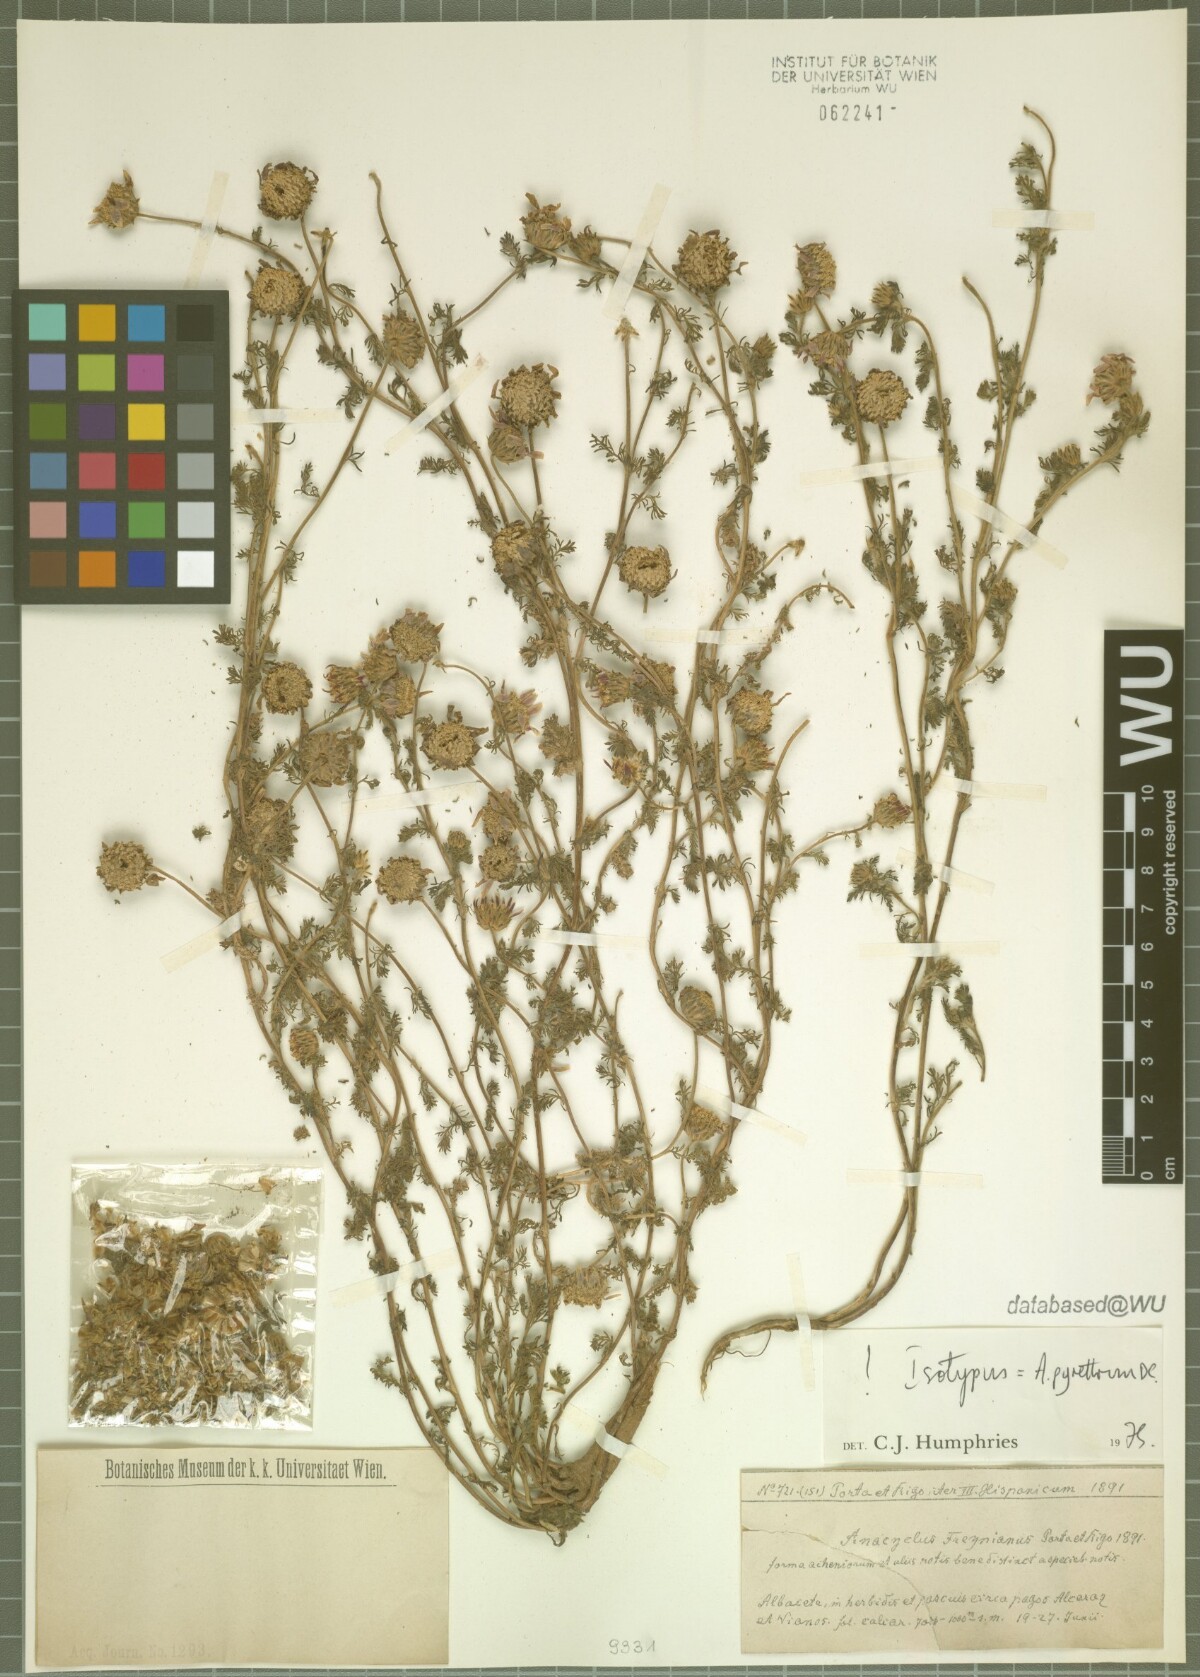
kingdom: Plantae
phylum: Tracheophyta
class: Magnoliopsida
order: Asterales
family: Asteraceae
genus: Anacyclus
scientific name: Anacyclus
